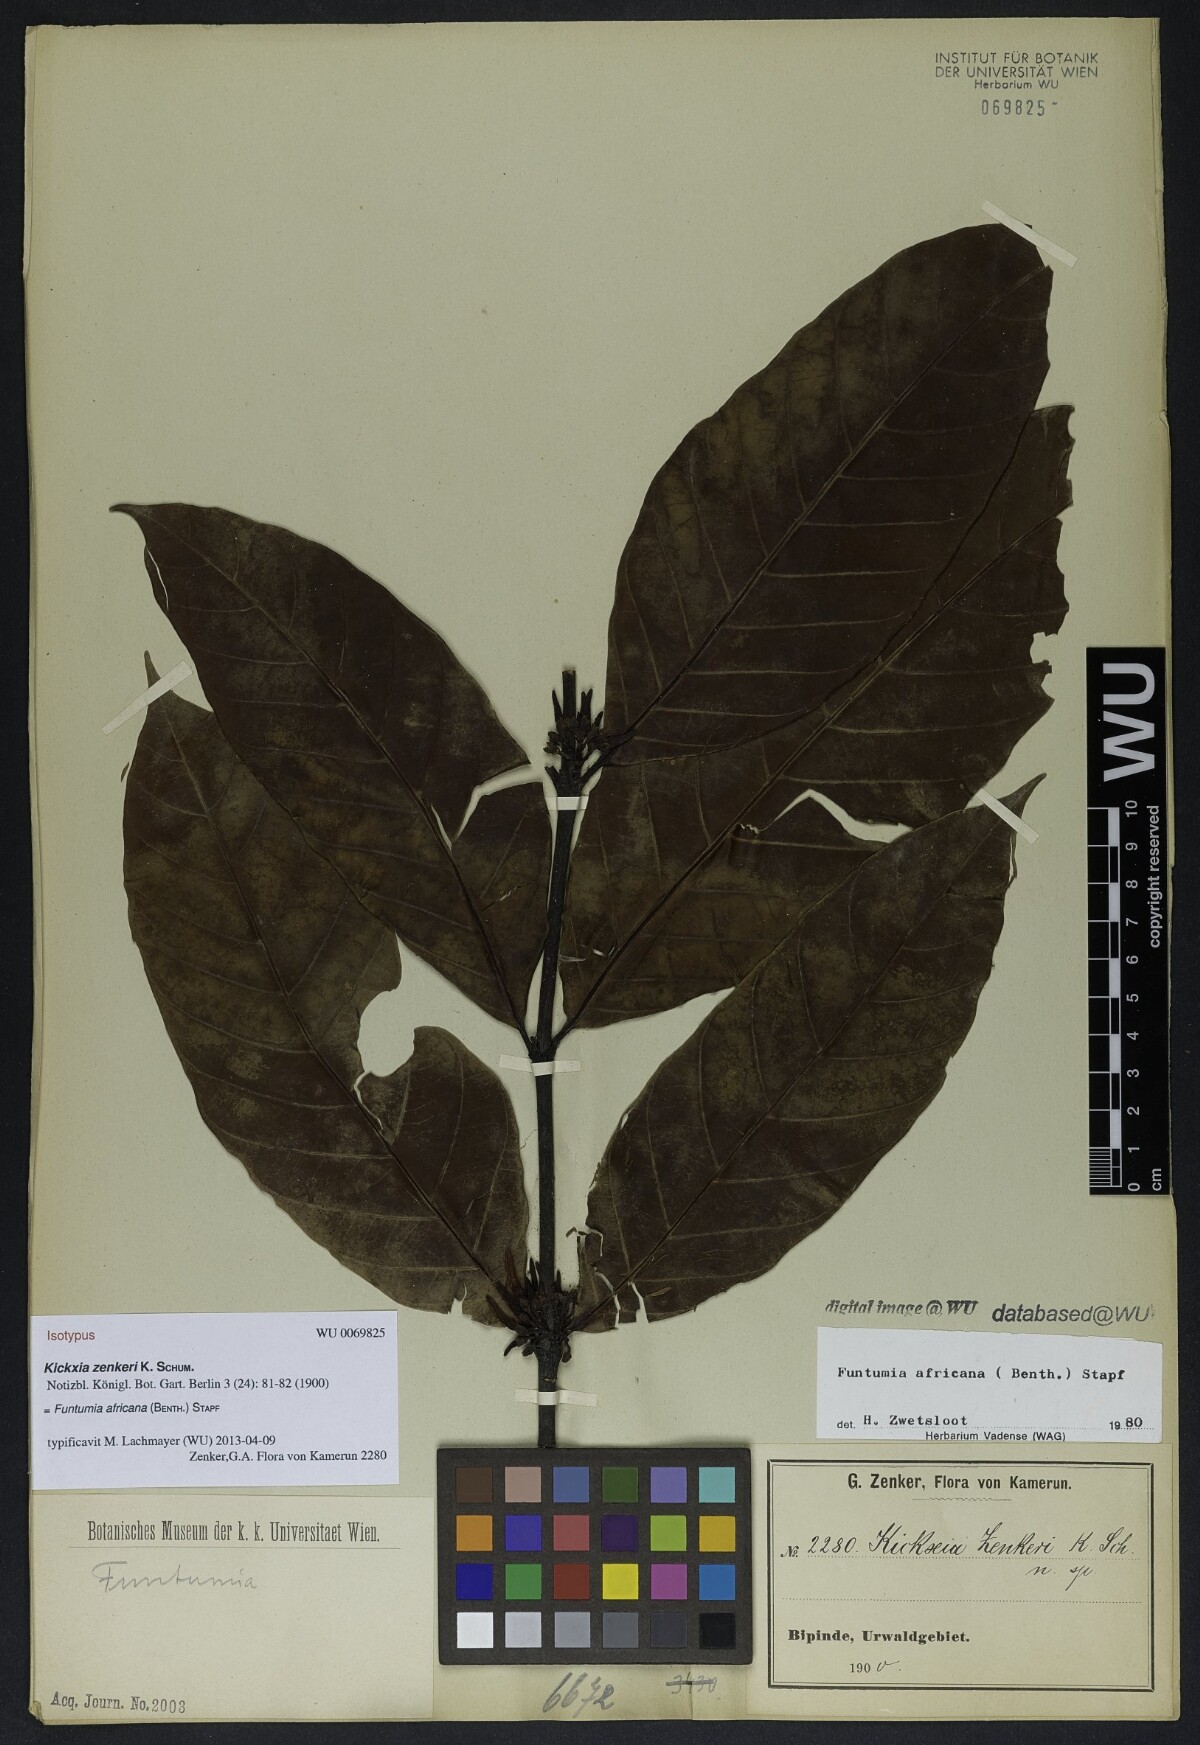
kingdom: Plantae
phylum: Tracheophyta
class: Magnoliopsida
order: Gentianales
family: Apocynaceae
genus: Funtumia
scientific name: Funtumia africana
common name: Lagos-rubber
